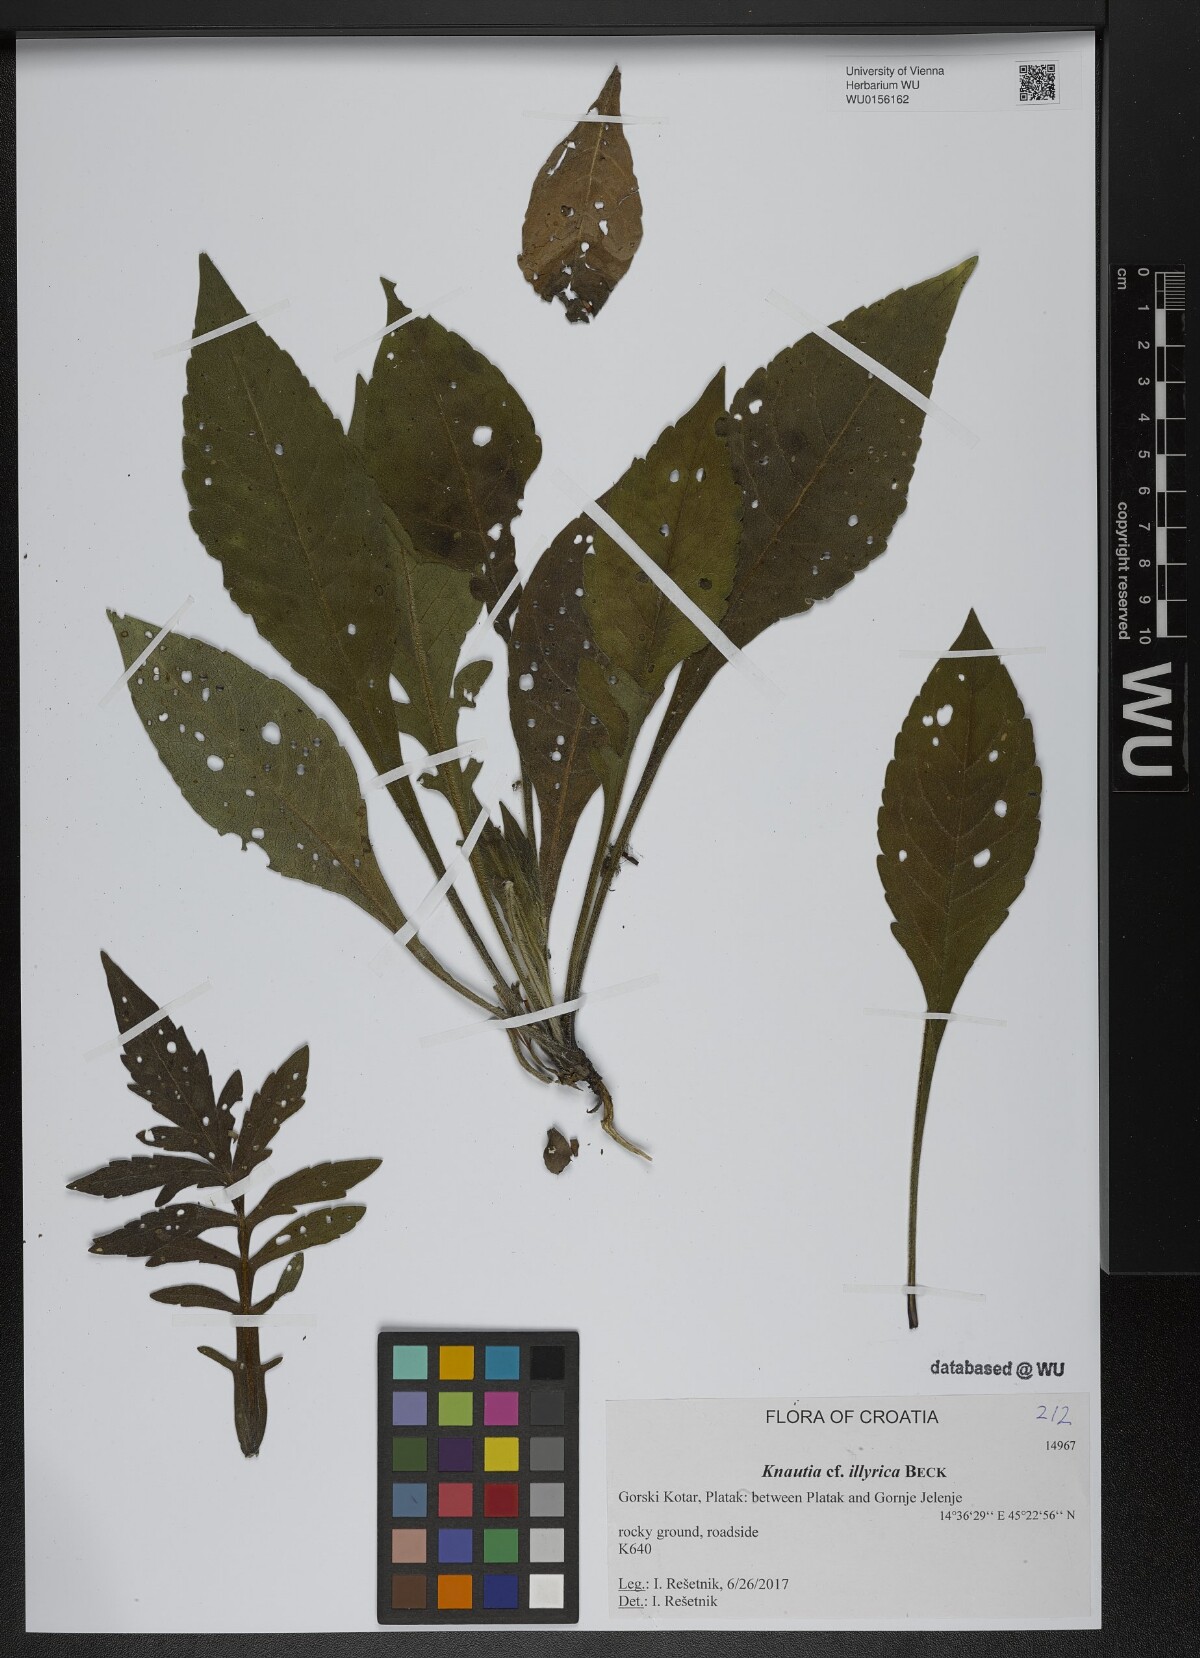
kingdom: Plantae
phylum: Tracheophyta
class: Magnoliopsida
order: Dipsacales
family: Caprifoliaceae
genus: Knautia
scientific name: Knautia illyrica
